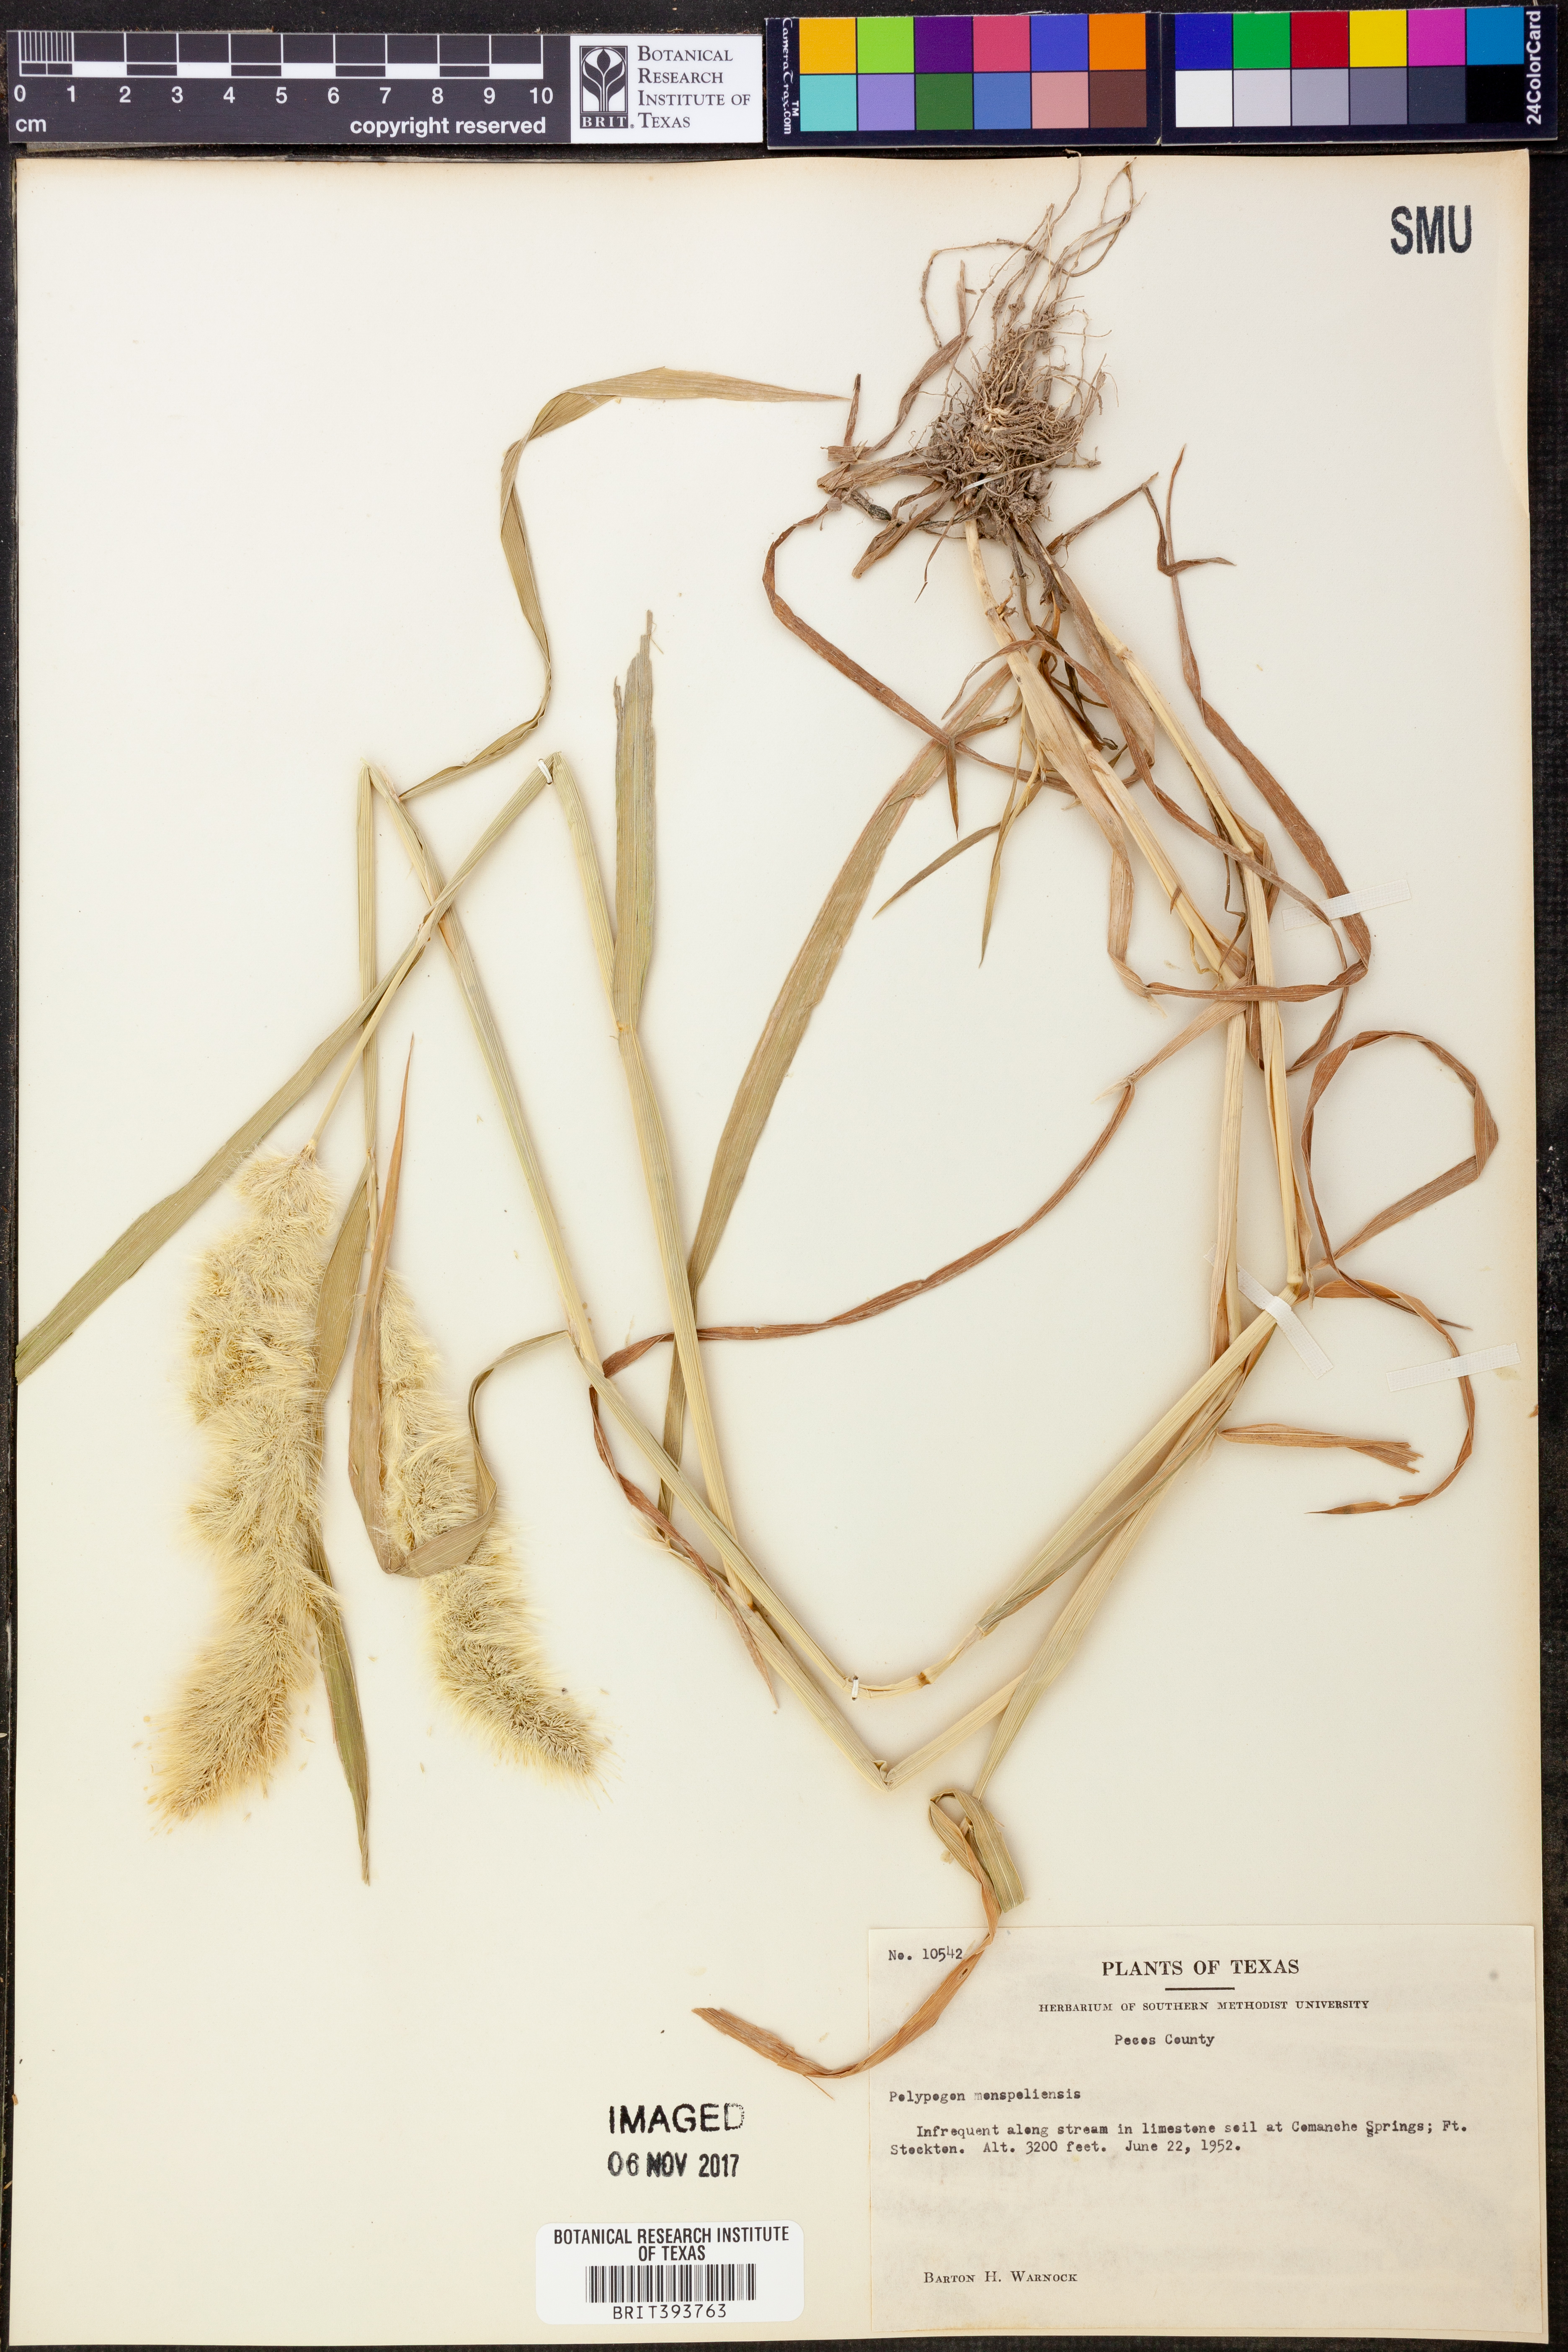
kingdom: Plantae
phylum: Tracheophyta
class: Liliopsida
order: Poales
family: Poaceae
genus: Polypogon
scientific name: Polypogon monspeliensis
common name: Annual rabbitsfoot grass
